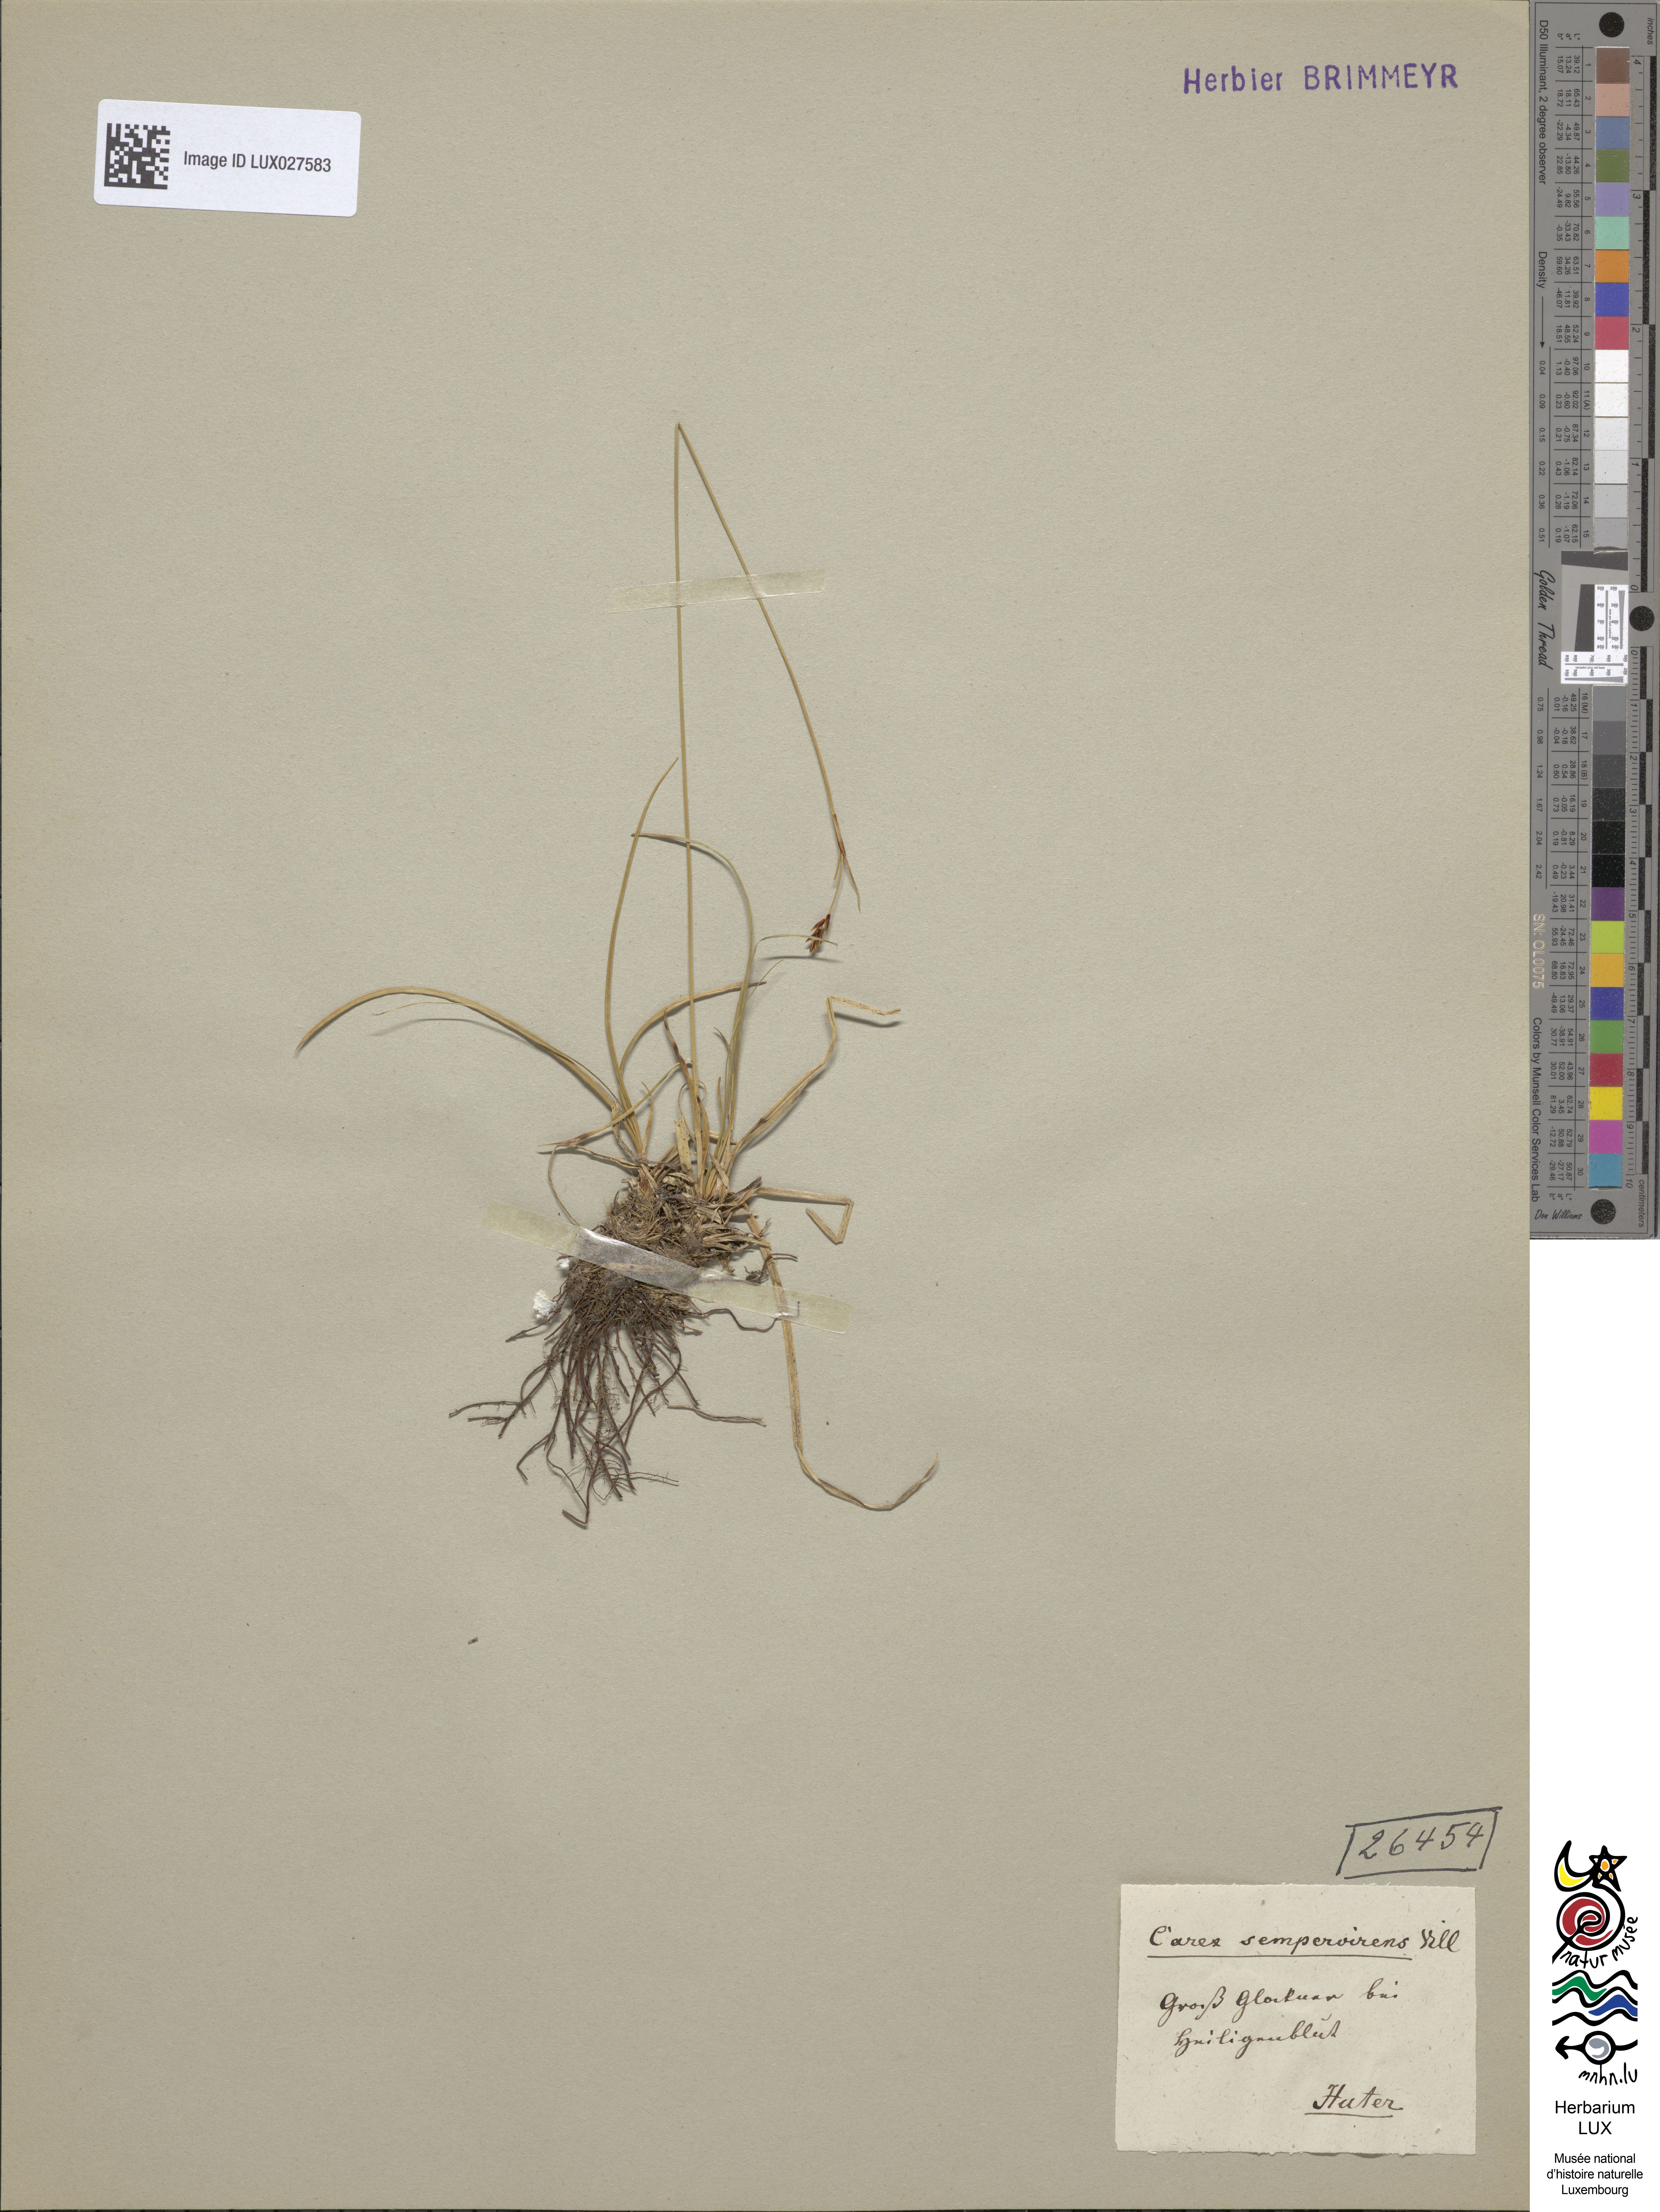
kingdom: Plantae
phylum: Tracheophyta
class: Liliopsida
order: Poales
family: Cyperaceae
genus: Carex
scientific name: Carex sempervirens
